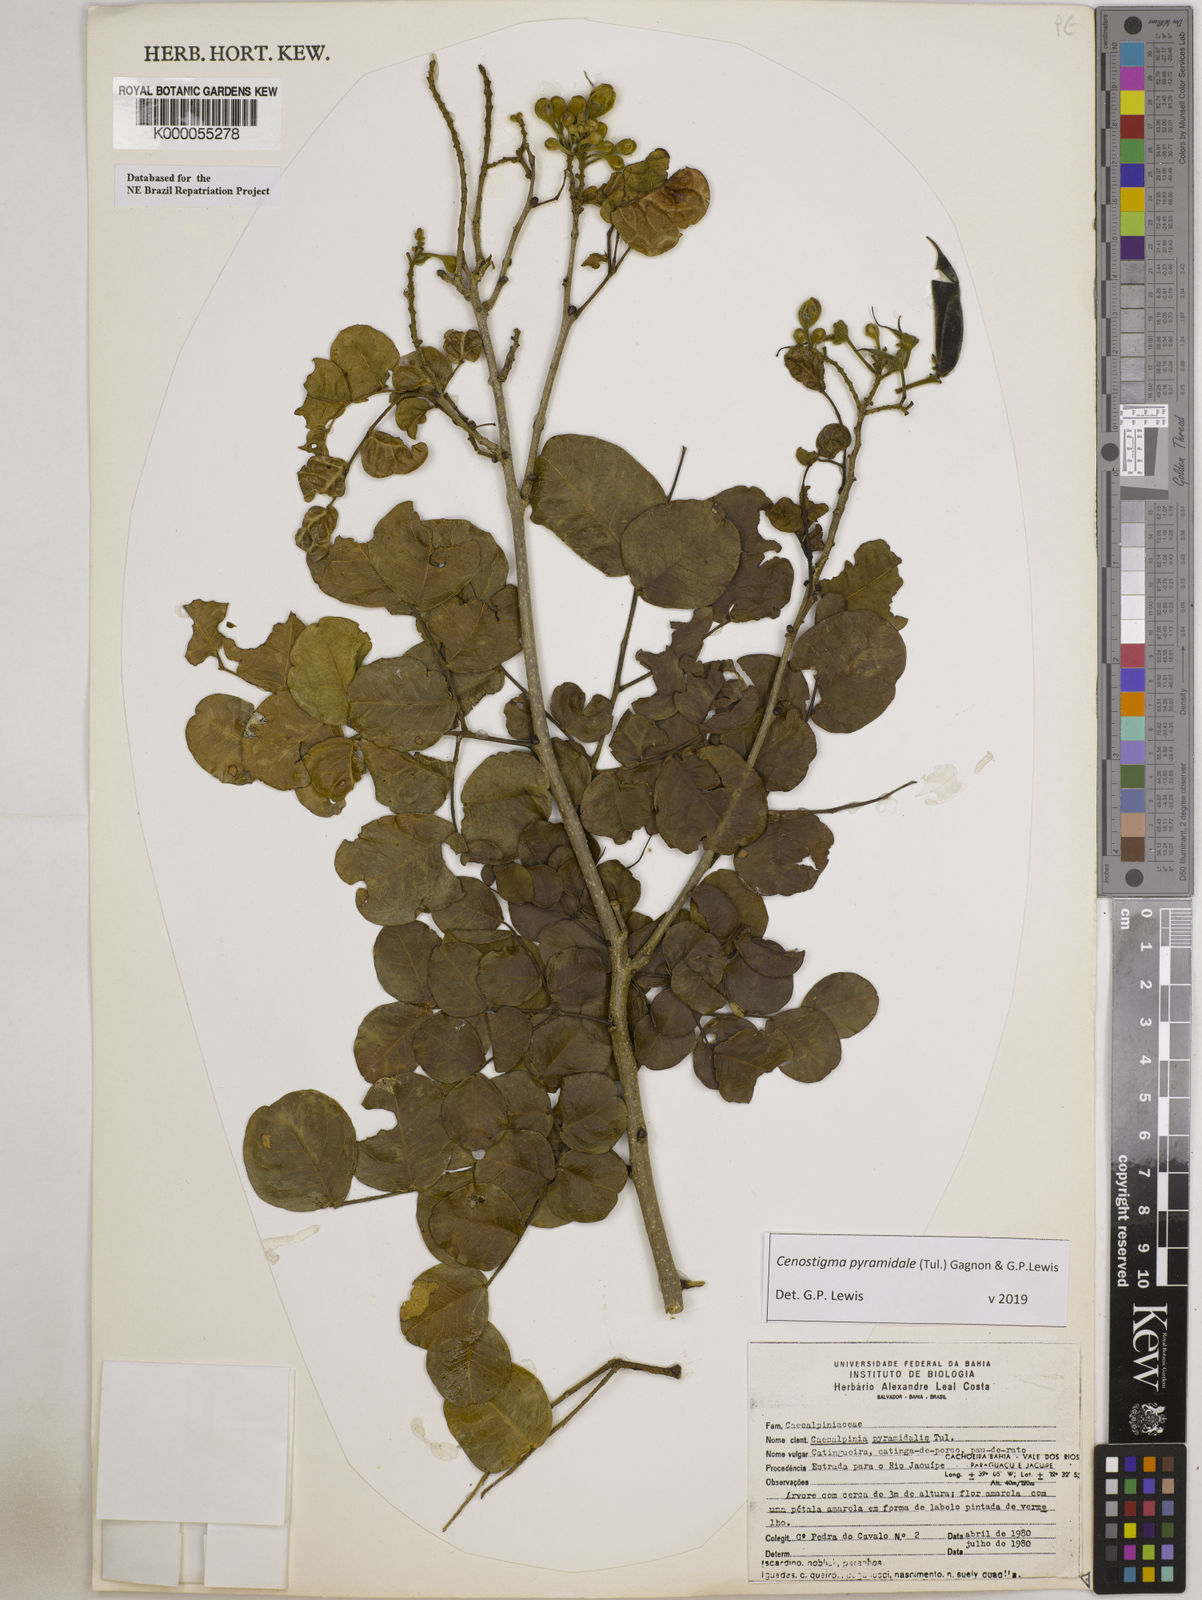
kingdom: Plantae
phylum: Tracheophyta
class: Magnoliopsida
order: Fabales
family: Fabaceae
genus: Cenostigma
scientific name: Cenostigma pyramidale
